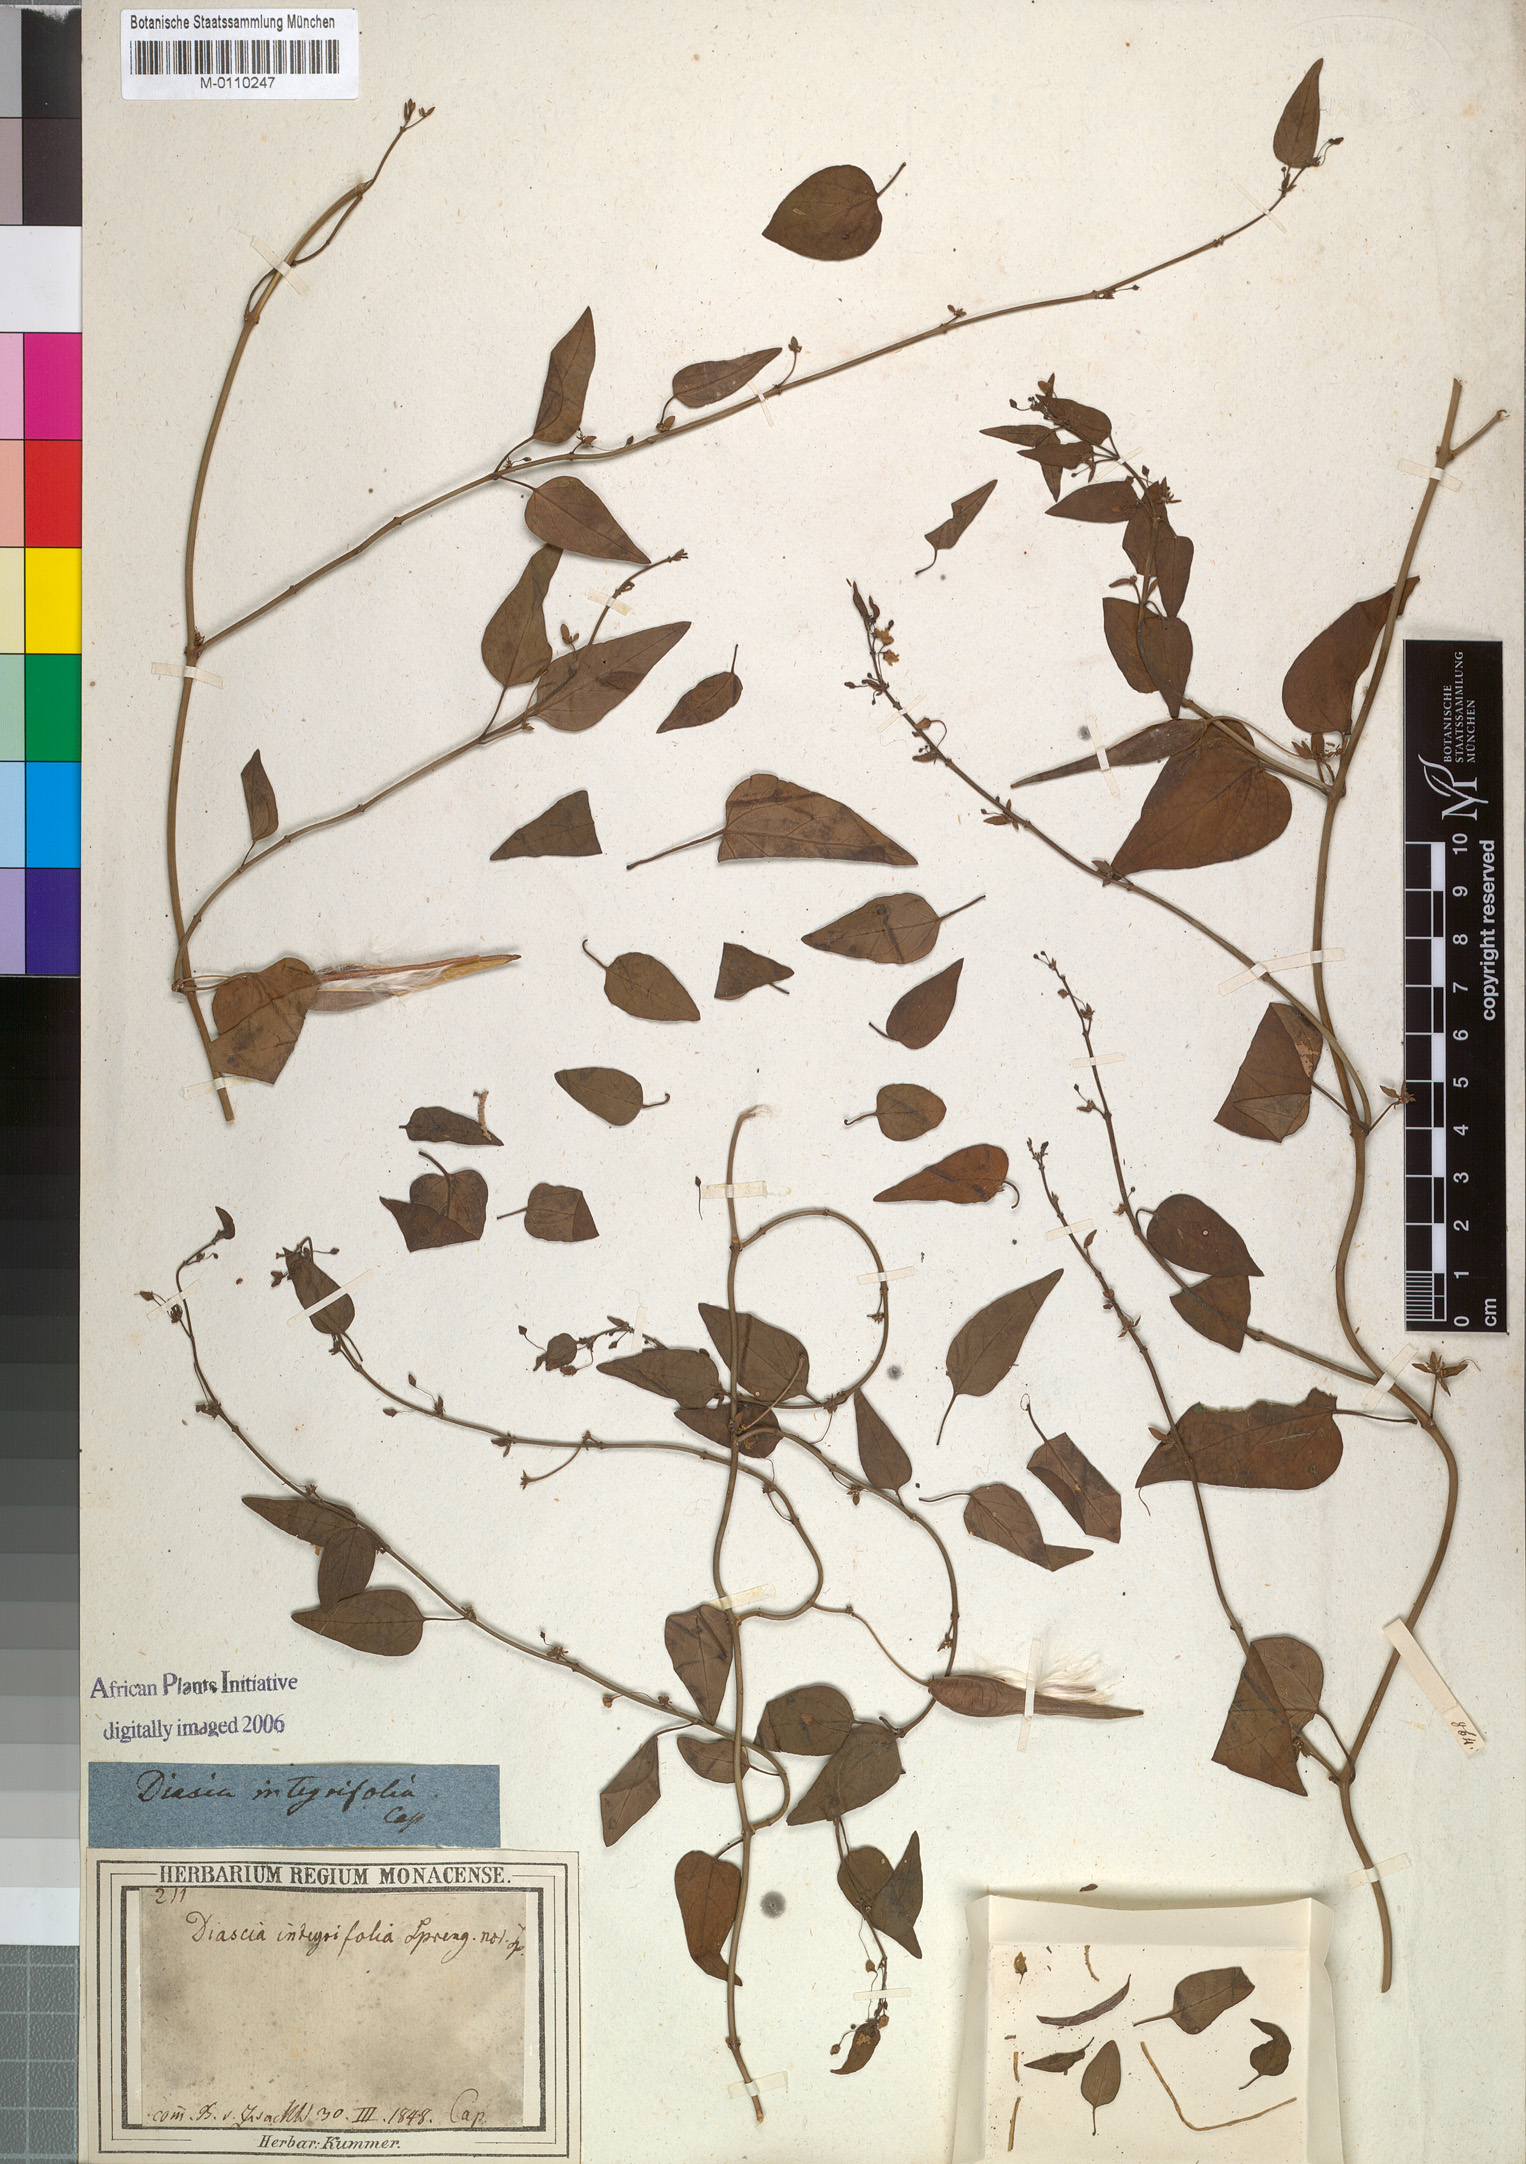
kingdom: Plantae
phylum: Tracheophyta
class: Magnoliopsida
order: Gentianales
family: Asclepiadaceae
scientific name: Asclepiadaceae
